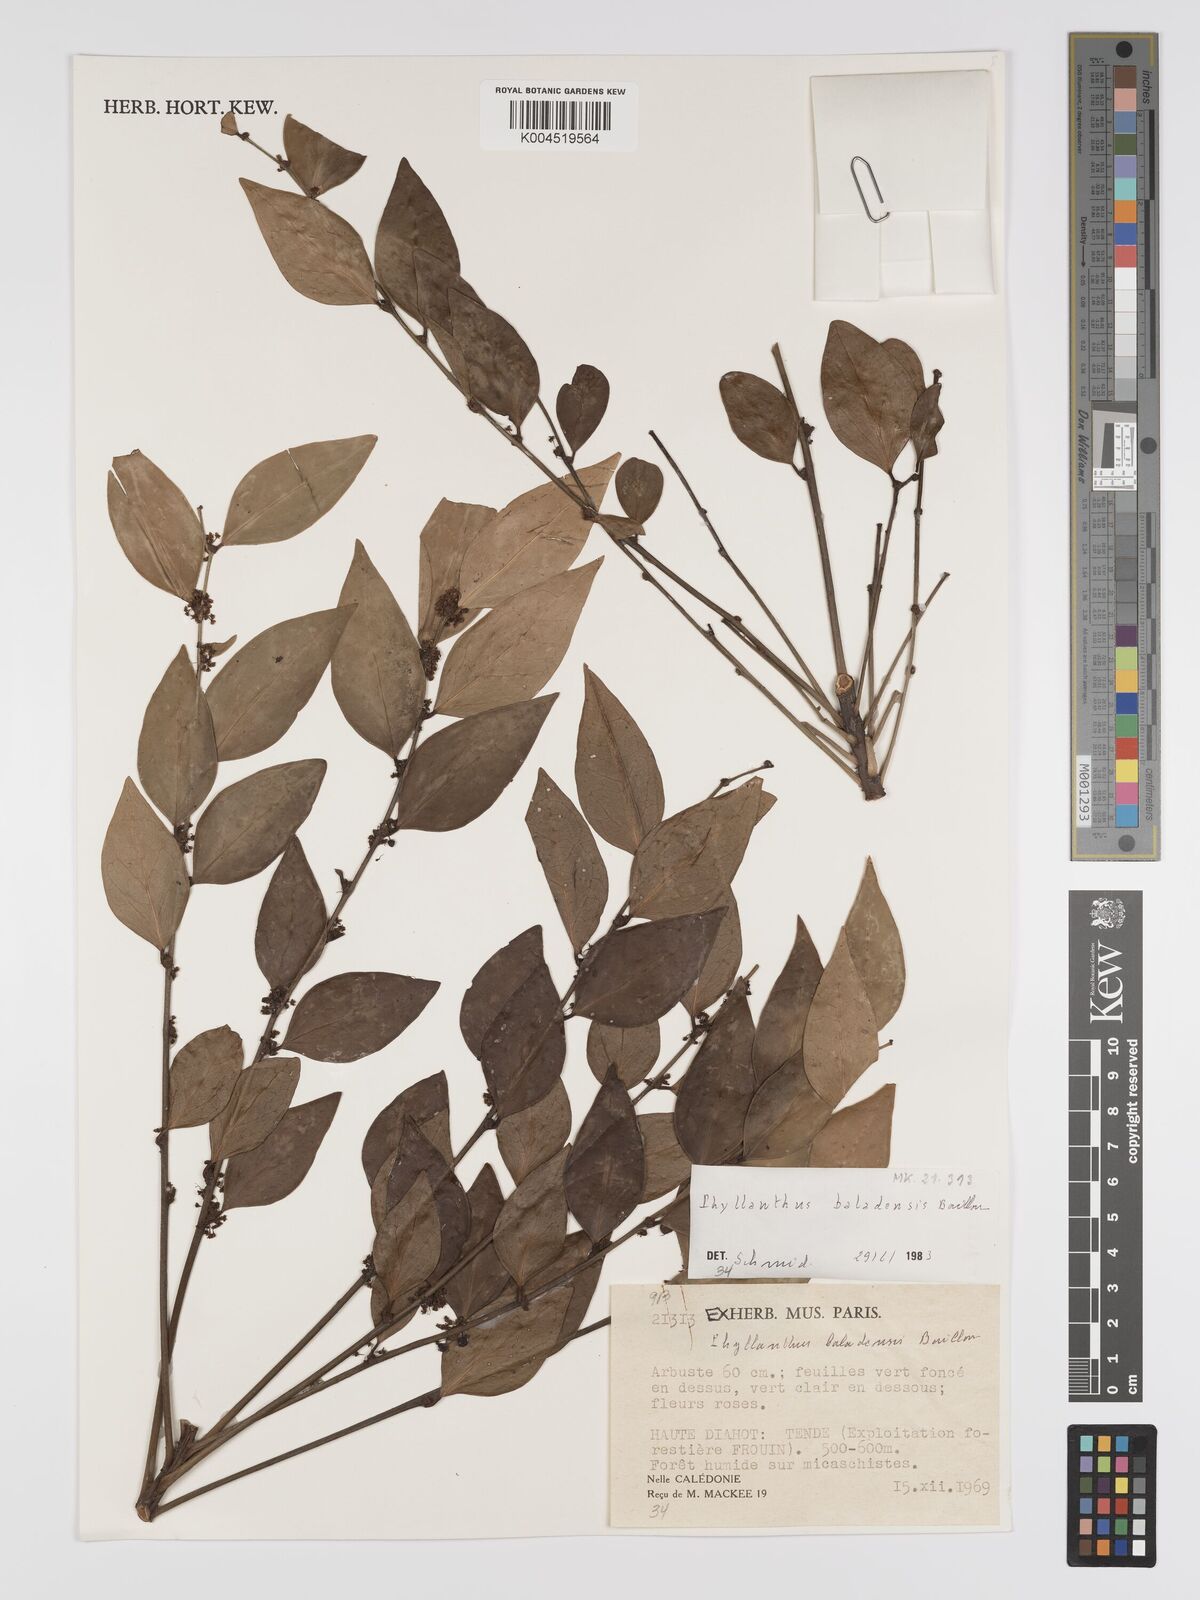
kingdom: Plantae
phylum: Tracheophyta
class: Magnoliopsida
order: Malpighiales
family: Phyllanthaceae
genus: Phyllanthus
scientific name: Phyllanthus baladensis
